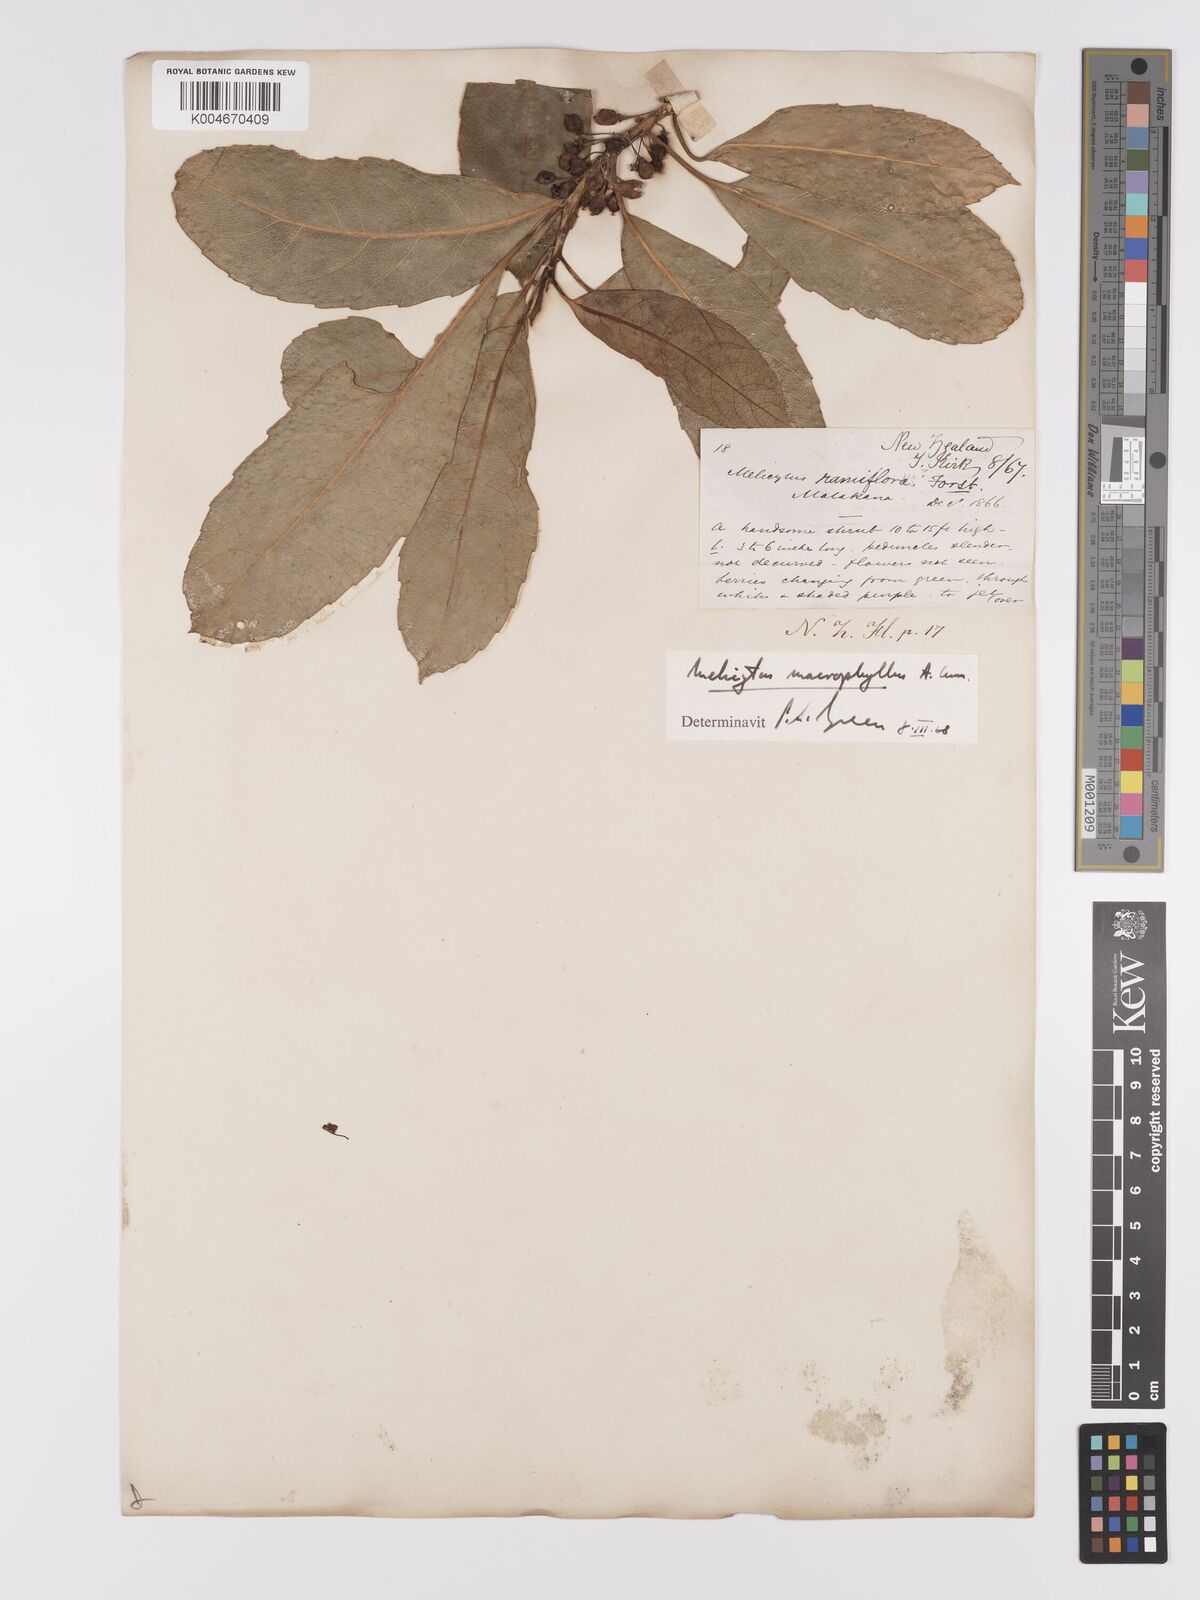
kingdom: Plantae
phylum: Tracheophyta
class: Magnoliopsida
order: Malpighiales
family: Violaceae
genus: Melicytus
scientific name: Melicytus macrophyllus
